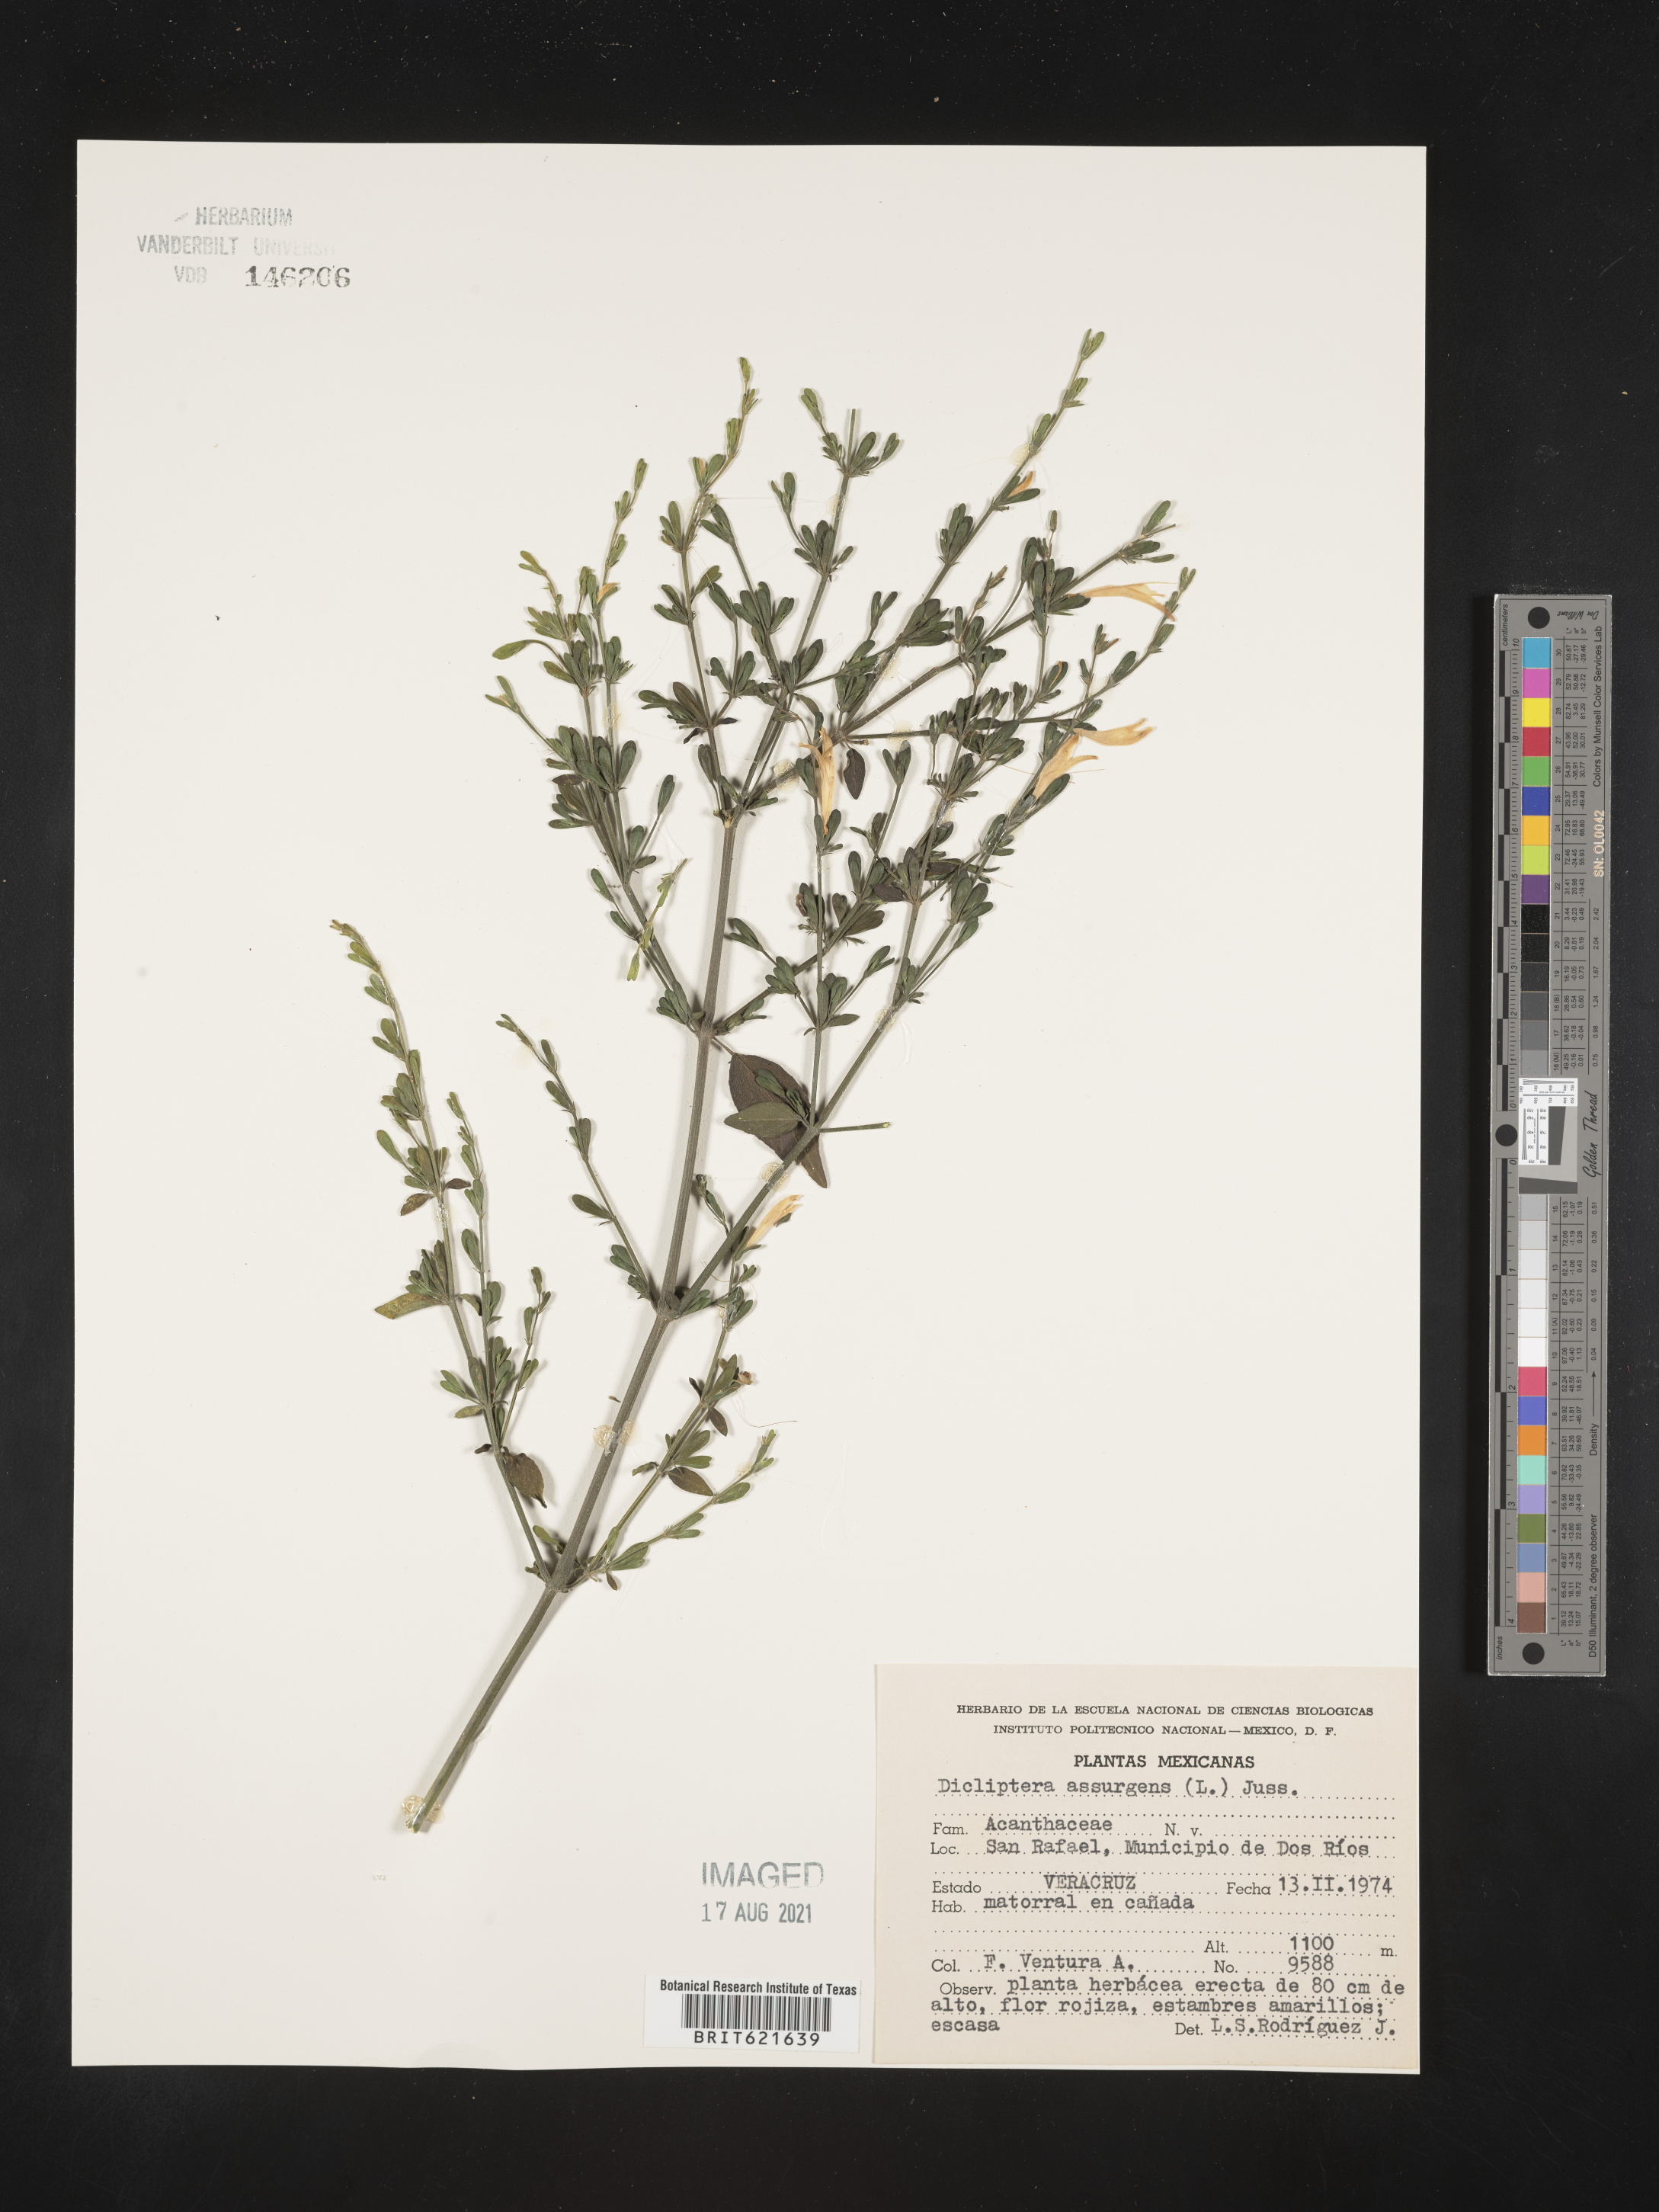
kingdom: Plantae
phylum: Tracheophyta
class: Magnoliopsida
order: Lamiales
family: Acanthaceae
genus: Dicliptera
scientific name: Dicliptera
